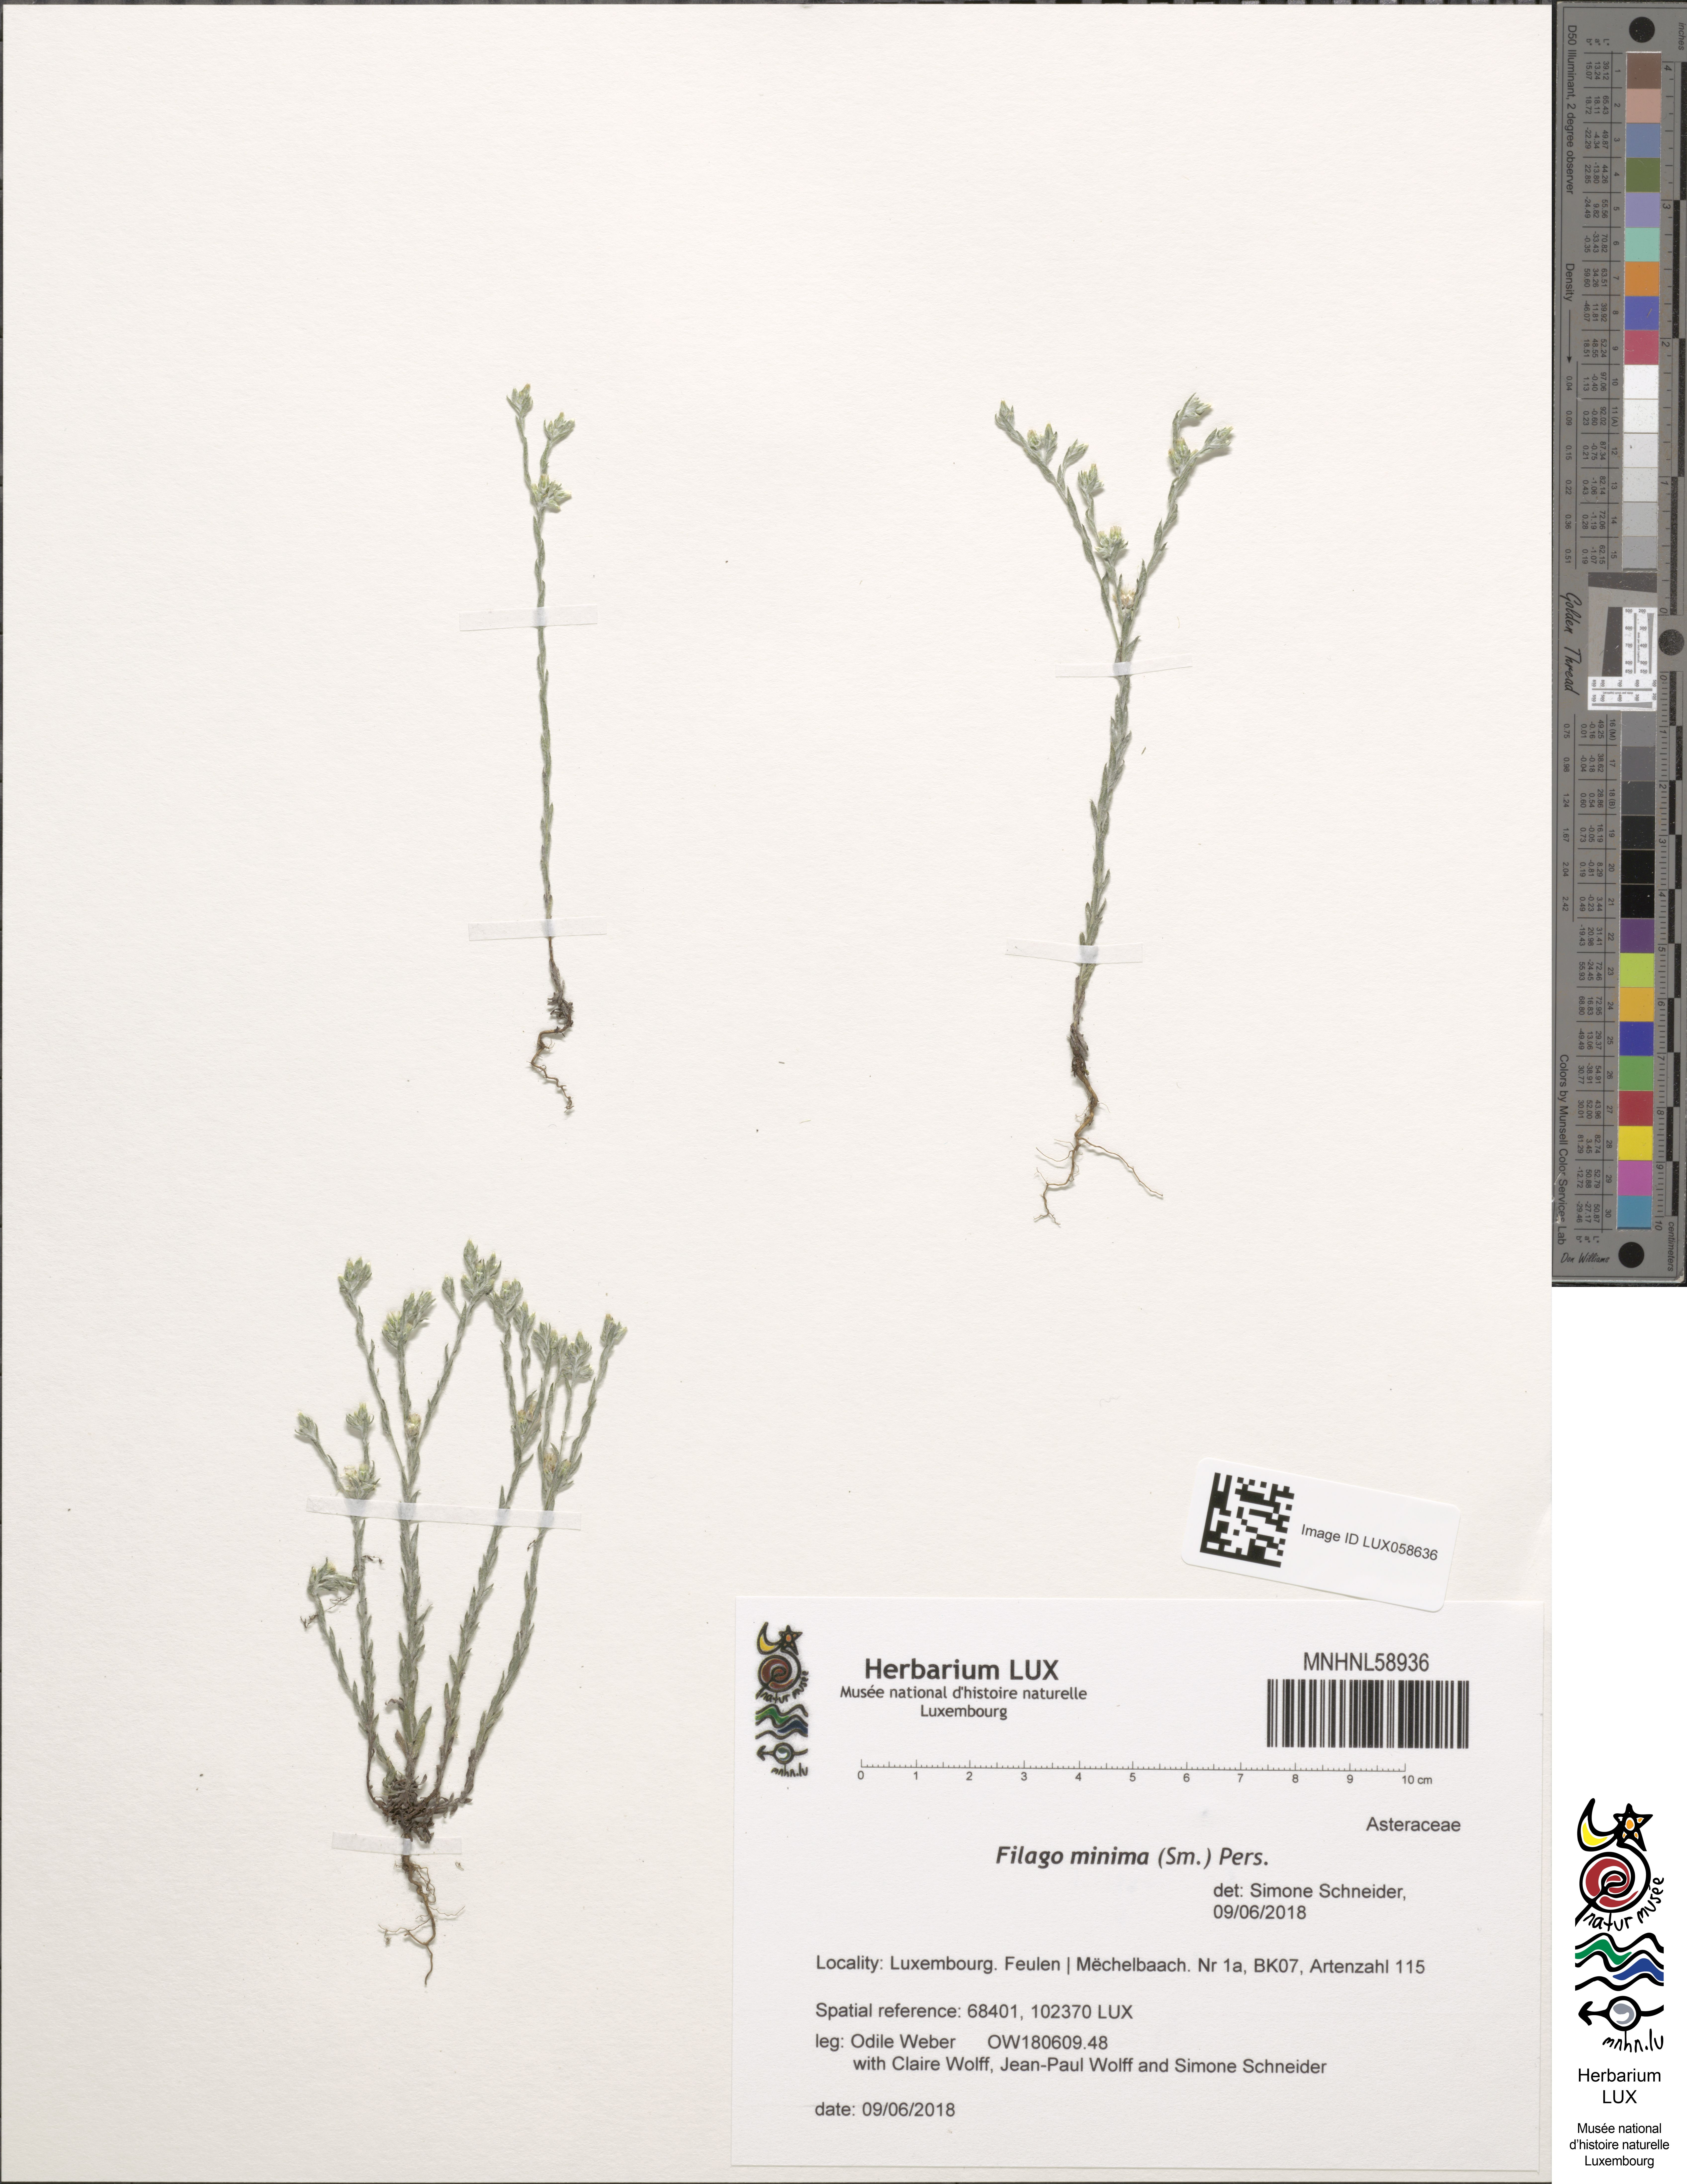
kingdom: Plantae
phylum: Tracheophyta
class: Magnoliopsida
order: Asterales
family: Asteraceae
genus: Logfia
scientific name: Logfia minima
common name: Little cottonrose
